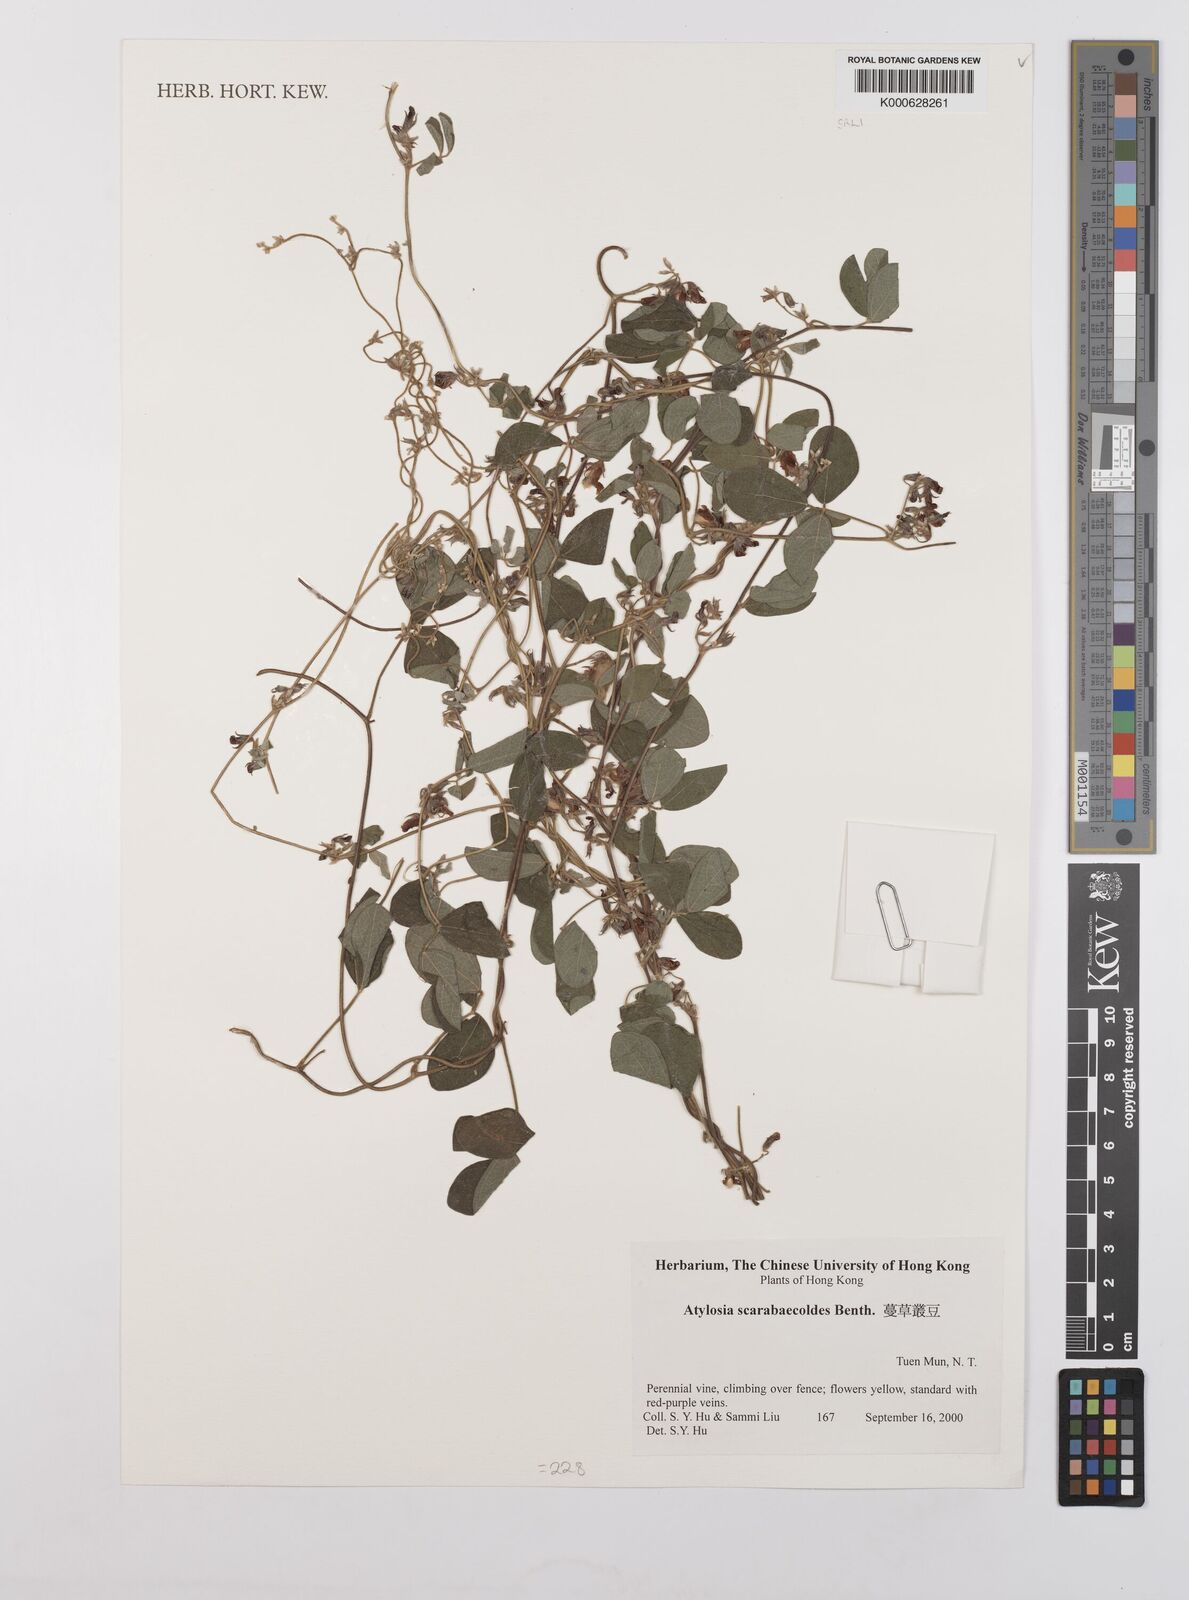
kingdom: Plantae
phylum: Tracheophyta
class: Magnoliopsida
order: Fabales
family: Fabaceae
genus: Cajanus
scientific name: Cajanus scarabaeoides
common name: Showy pigeonpea
